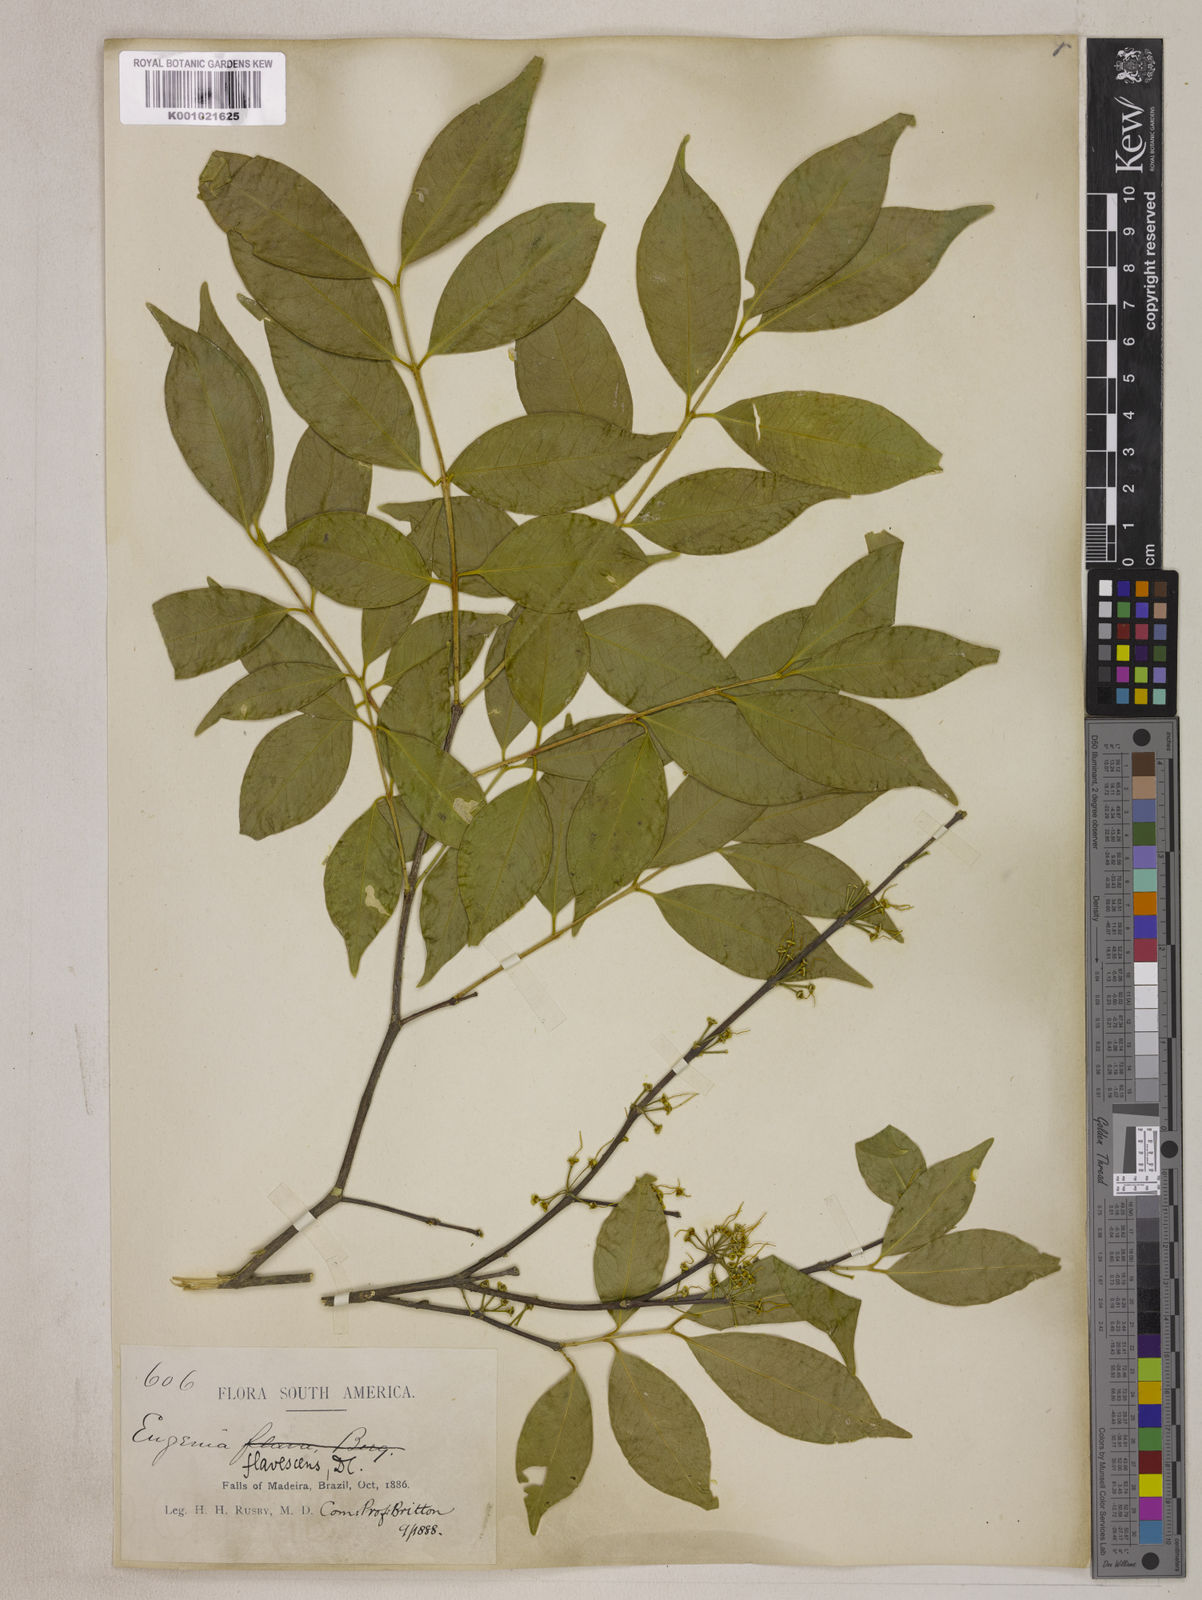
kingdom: Plantae
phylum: Tracheophyta
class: Magnoliopsida
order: Myrtales
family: Myrtaceae
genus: Eugenia
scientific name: Eugenia flavescens
